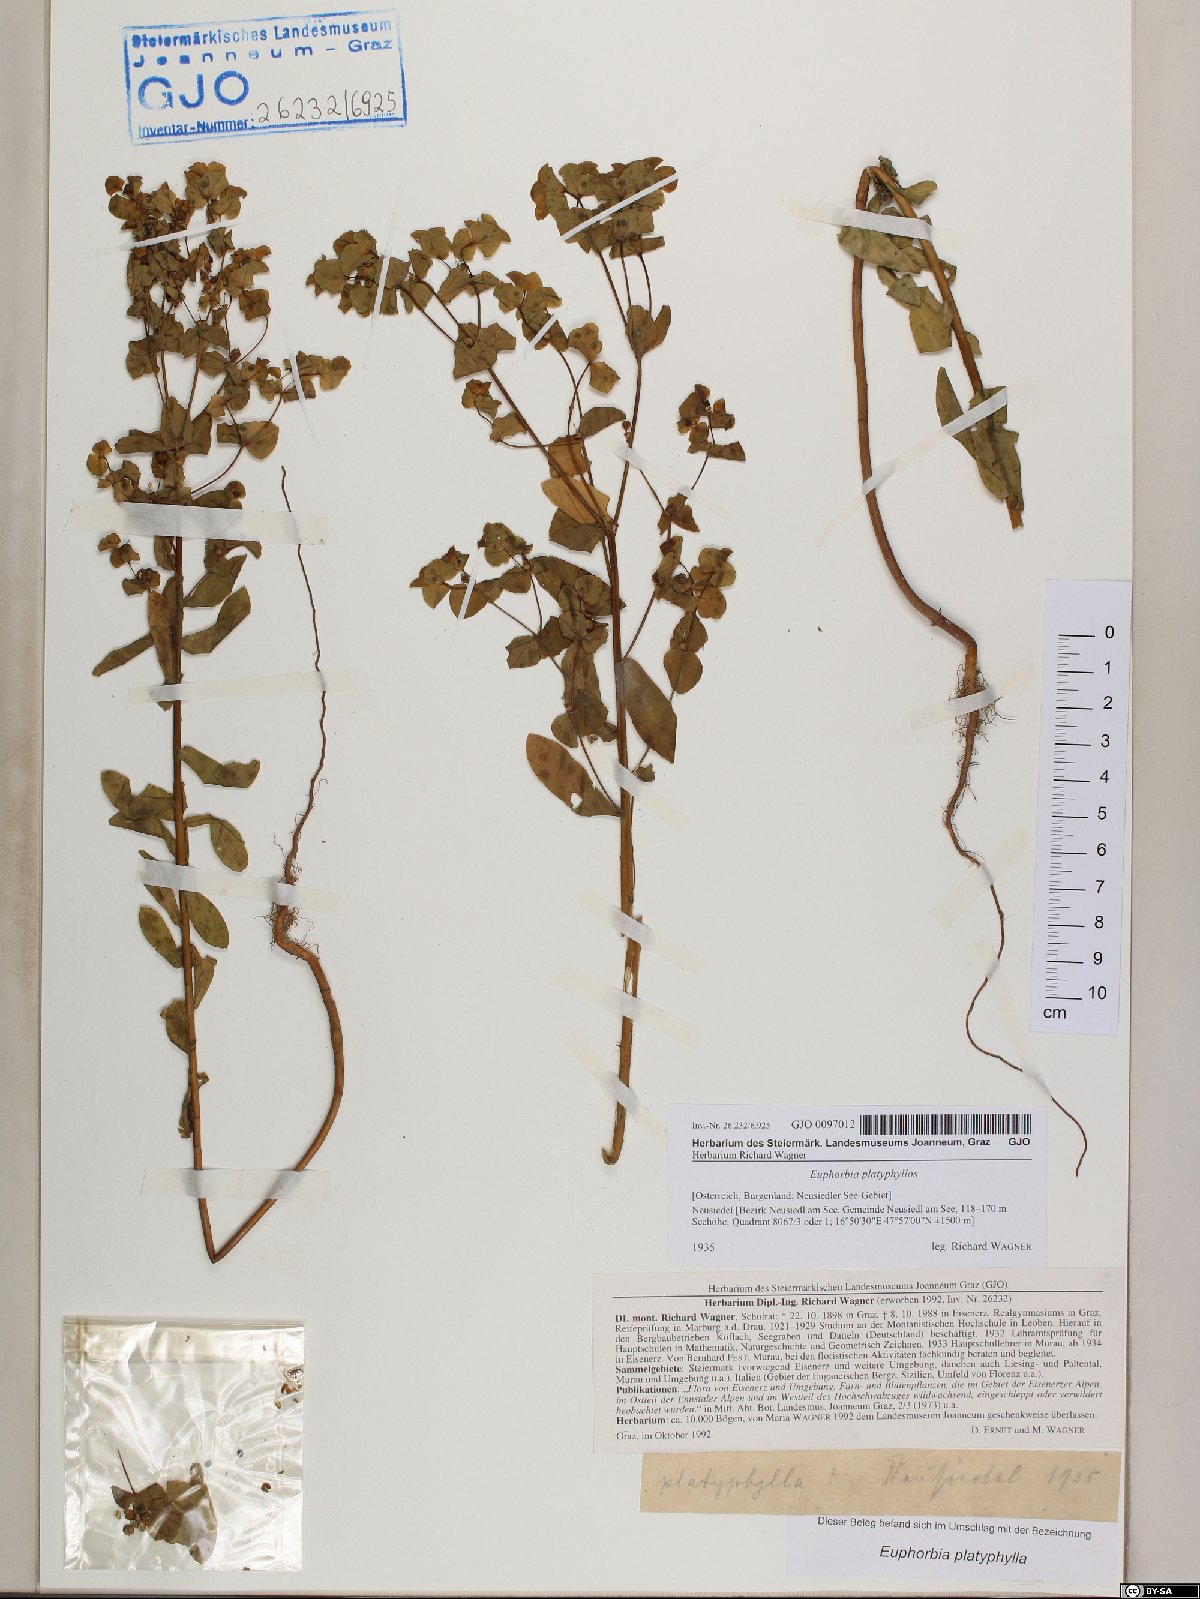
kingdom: Plantae
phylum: Tracheophyta
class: Magnoliopsida
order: Malpighiales
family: Euphorbiaceae
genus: Euphorbia
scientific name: Euphorbia platyphyllos
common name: Broad-leaved spurge
